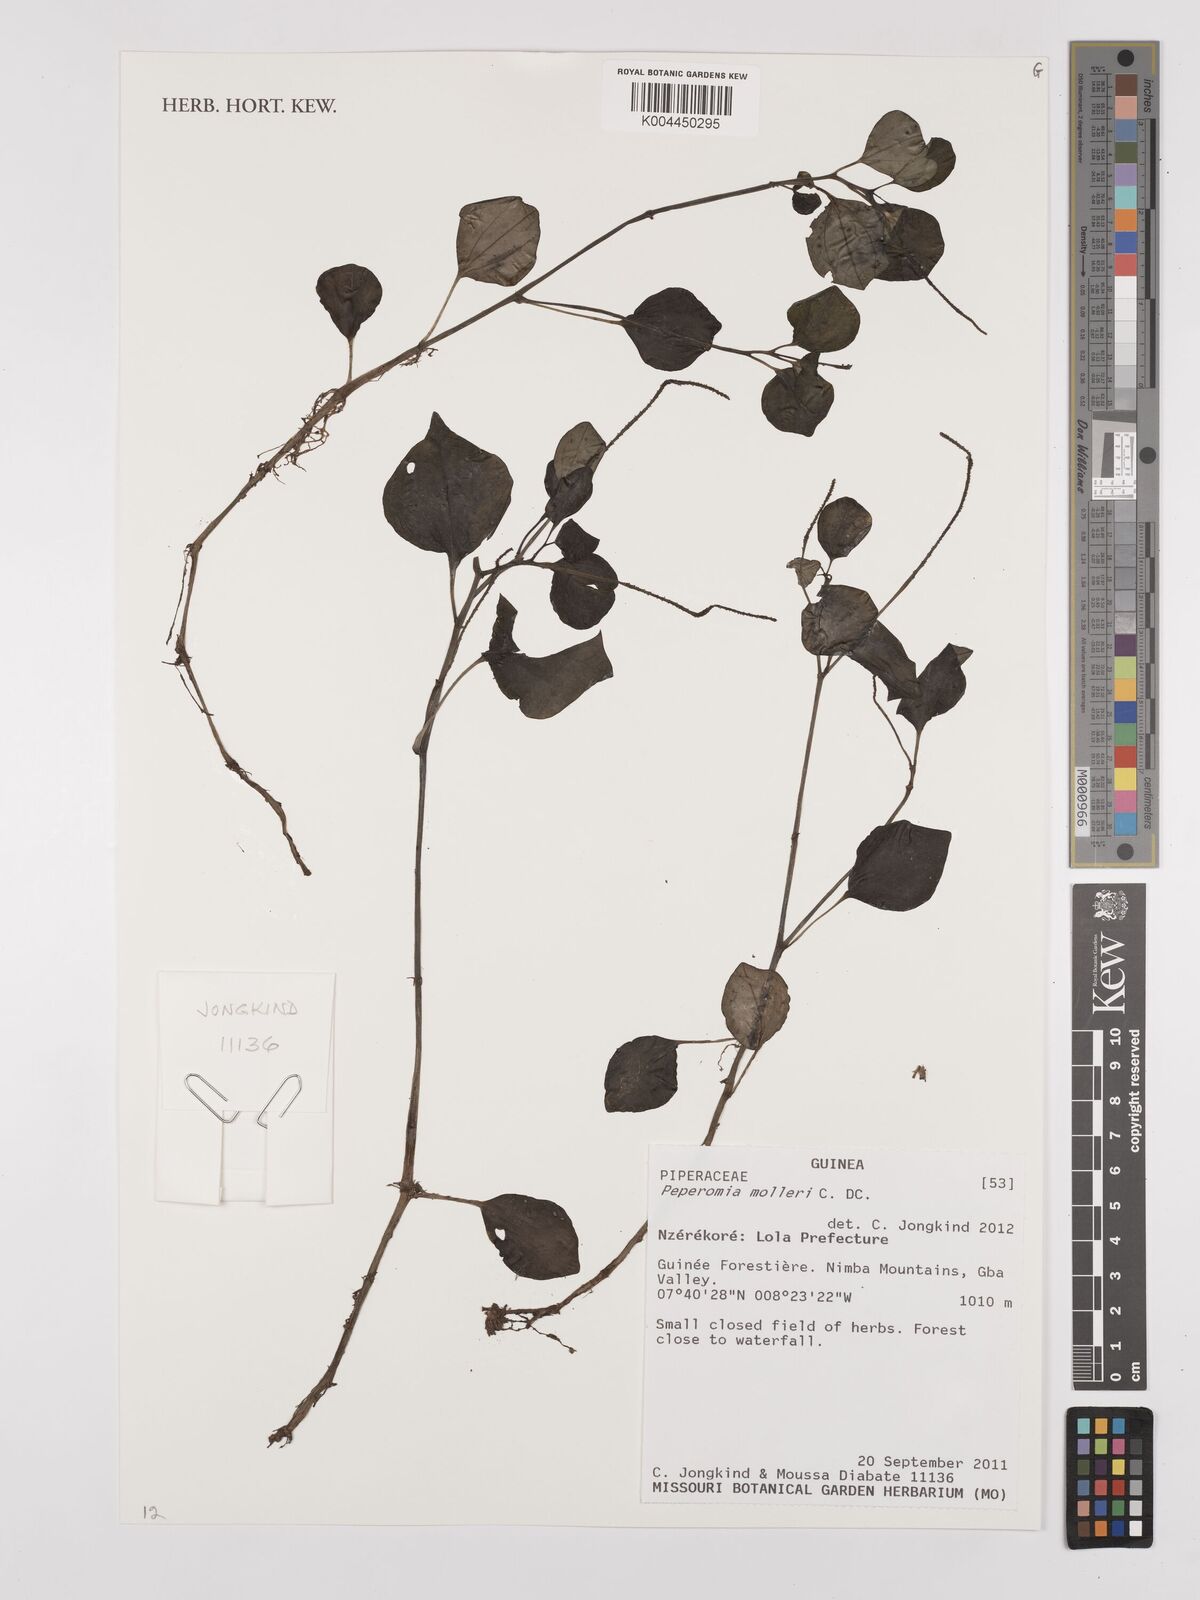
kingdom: Plantae
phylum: Tracheophyta
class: Magnoliopsida
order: Piperales
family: Piperaceae
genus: Peperomia
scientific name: Peperomia molleri
